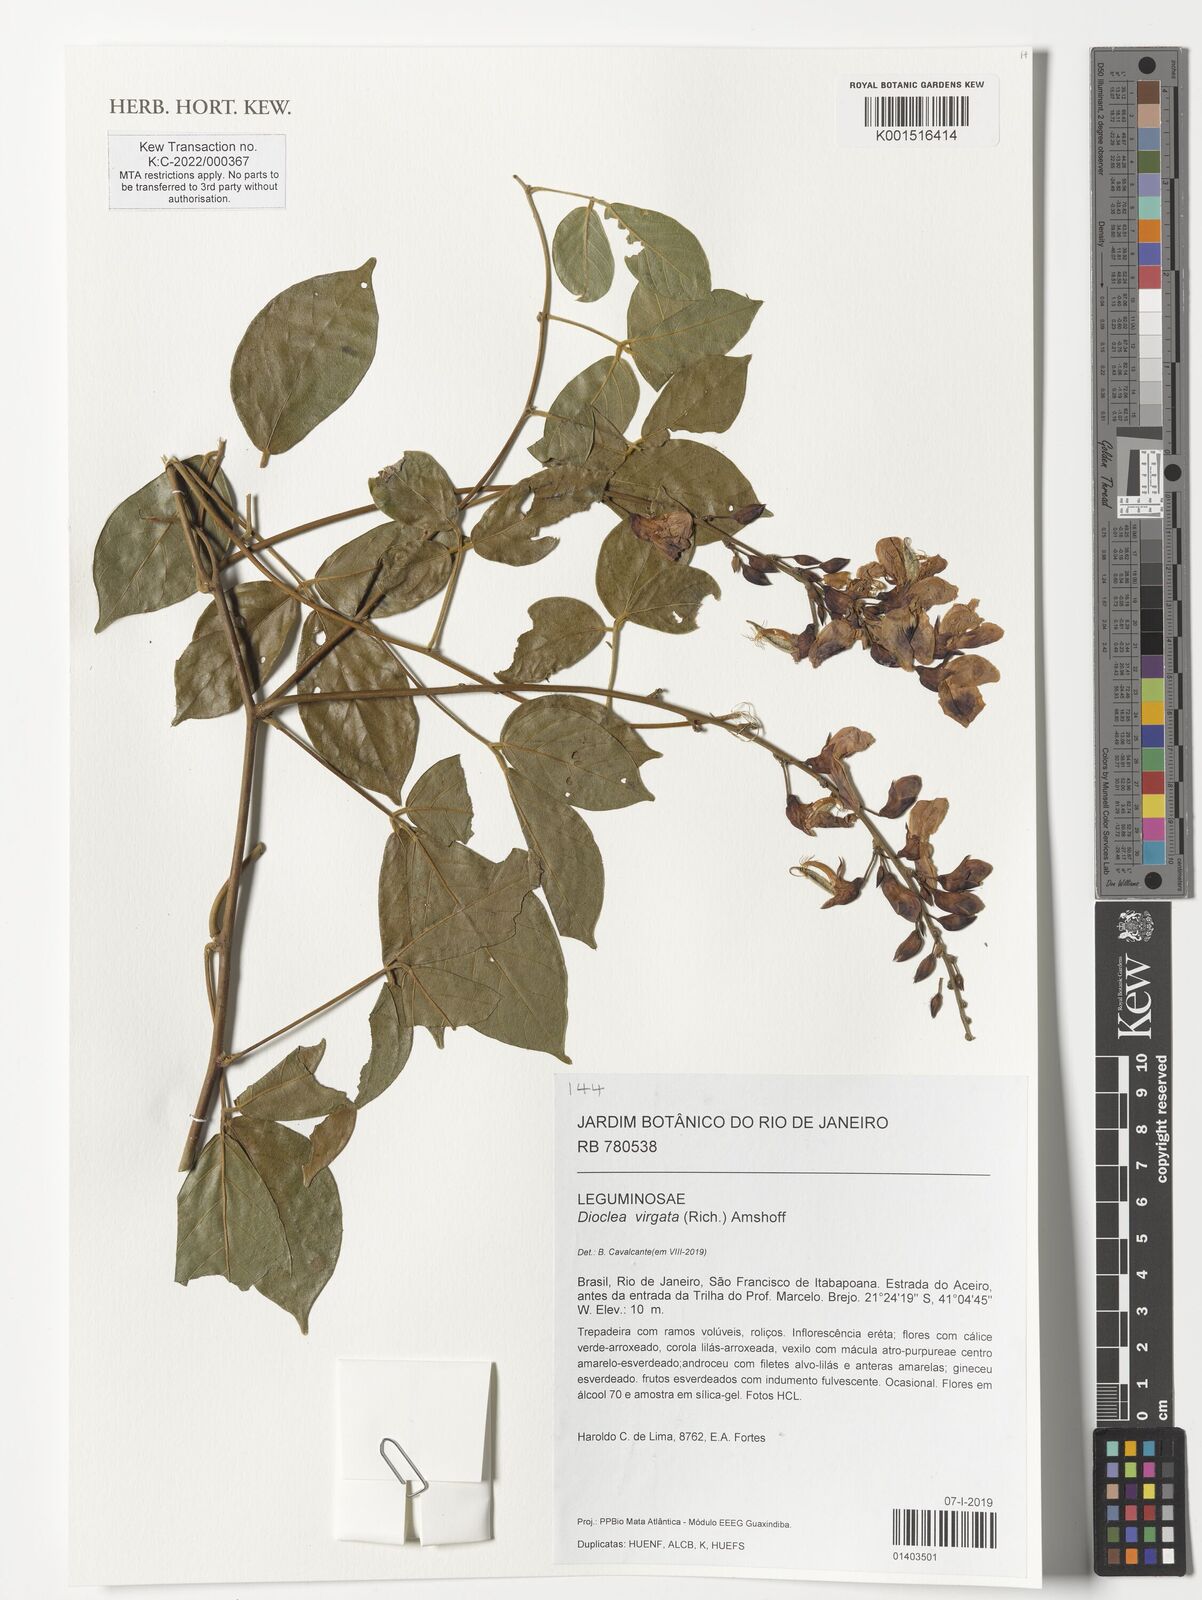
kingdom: Plantae
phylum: Tracheophyta
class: Magnoliopsida
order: Fabales
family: Fabaceae
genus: Dioclea
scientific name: Dioclea virgata
